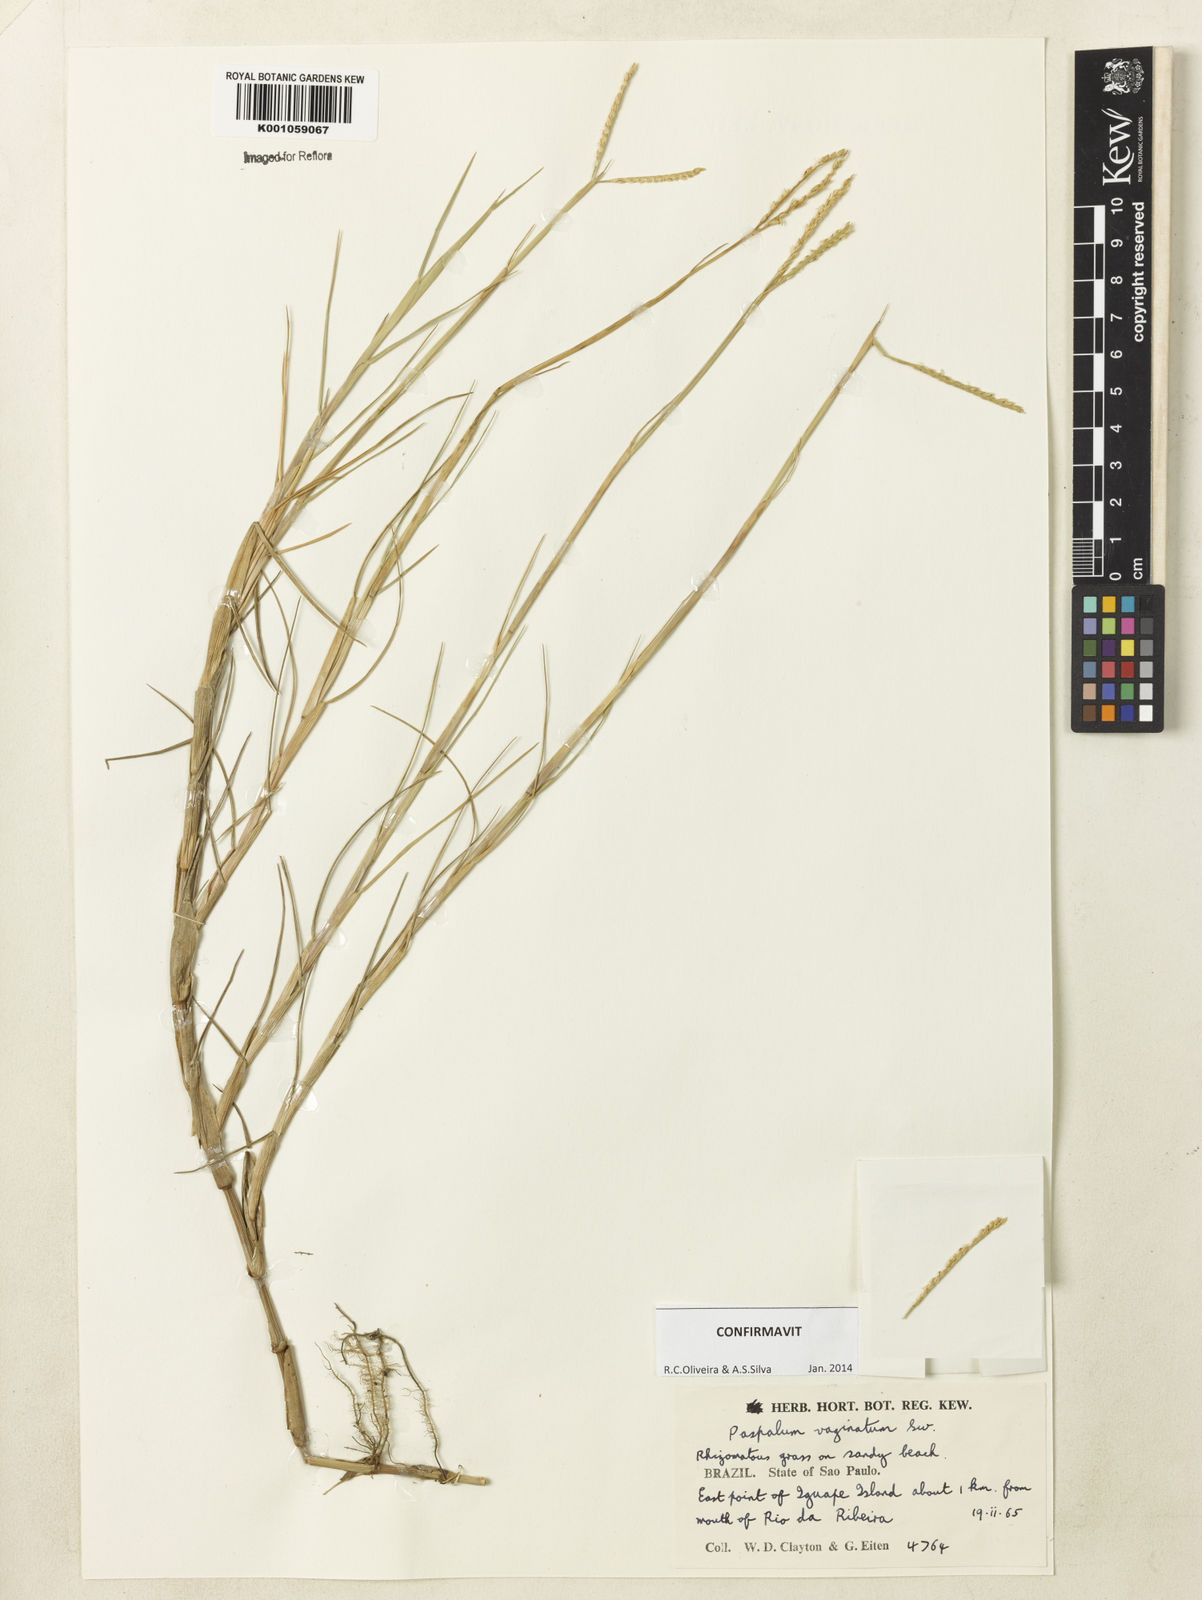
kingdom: Plantae
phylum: Tracheophyta
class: Liliopsida
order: Poales
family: Poaceae
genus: Paspalum
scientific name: Paspalum vaginatum
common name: Seashore paspalum
